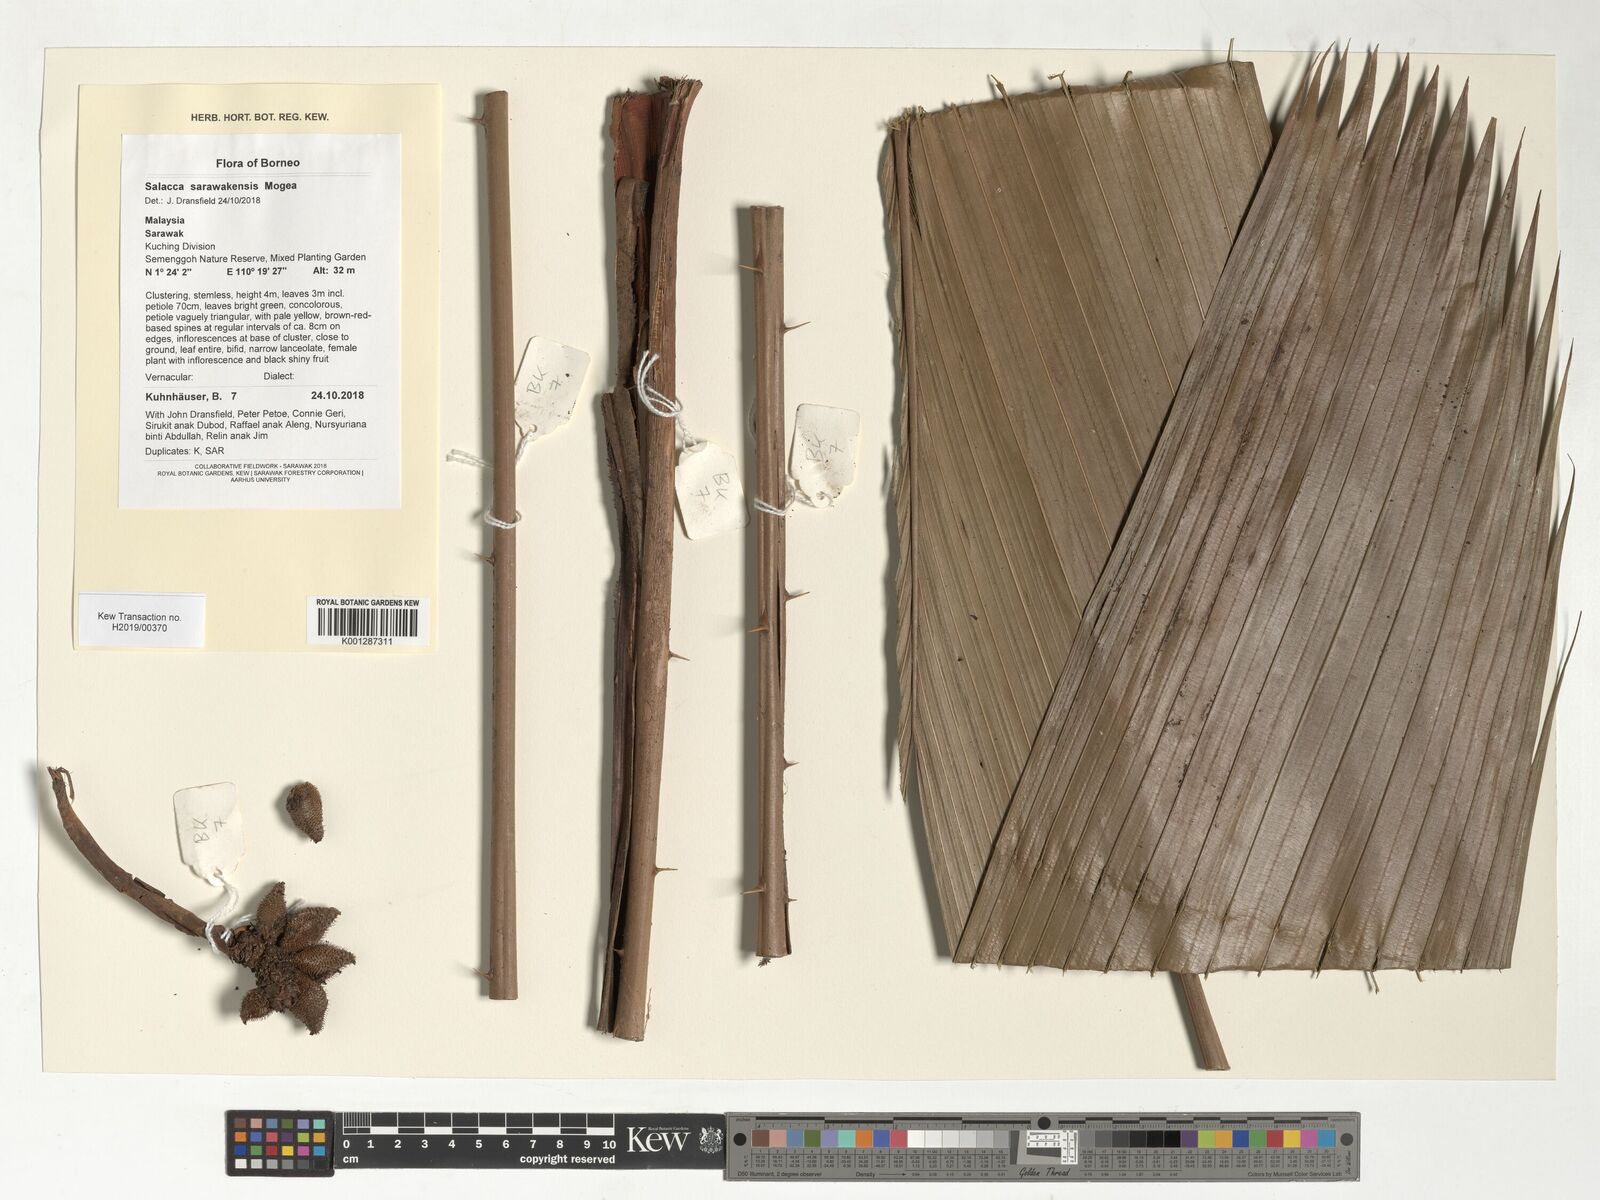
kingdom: Plantae
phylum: Tracheophyta
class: Liliopsida
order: Arecales
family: Arecaceae
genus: Salacca
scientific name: Salacca sarawakensis
